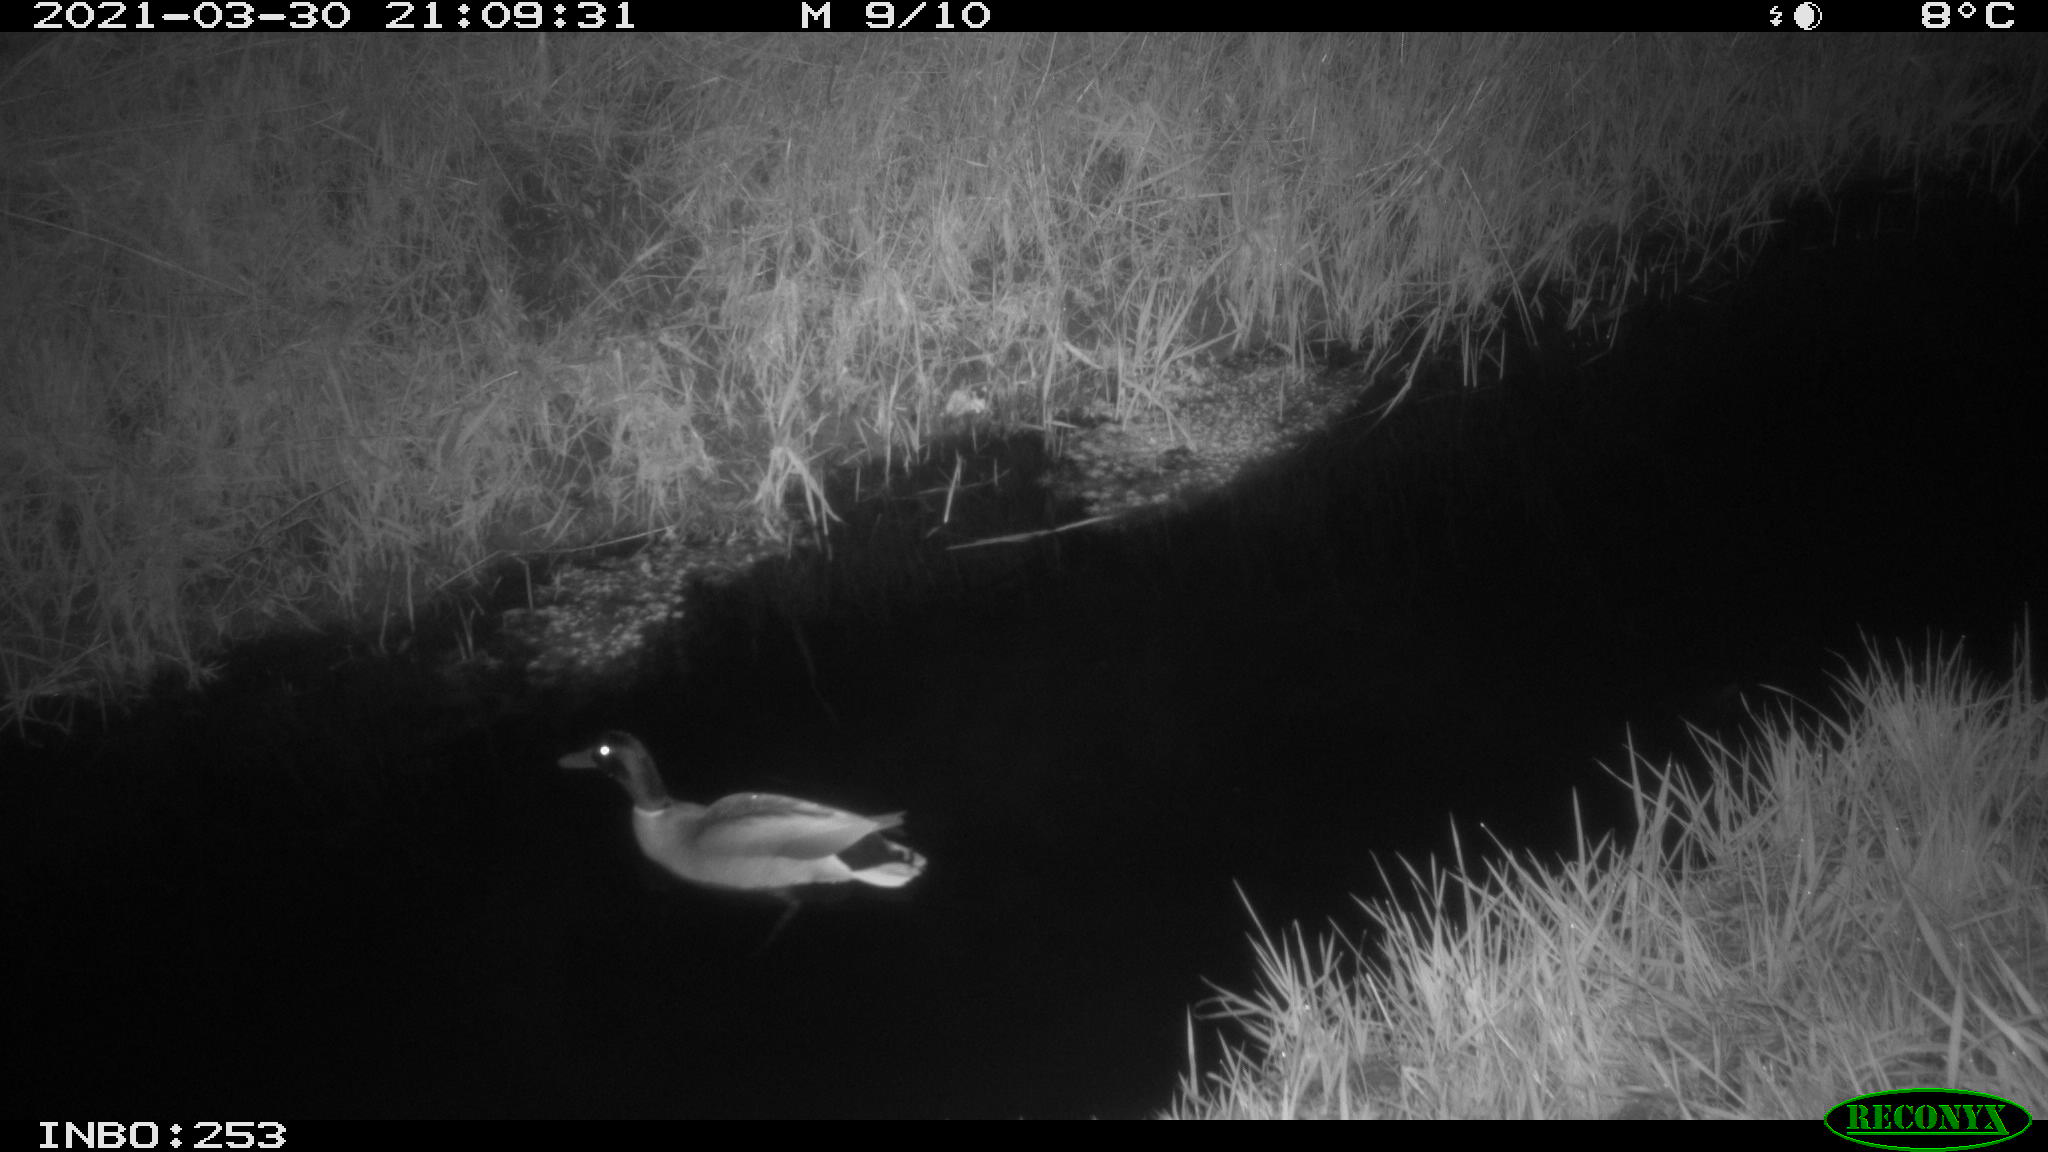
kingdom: Animalia
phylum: Chordata
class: Aves
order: Anseriformes
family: Anatidae
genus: Anas
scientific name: Anas platyrhynchos
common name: Mallard
